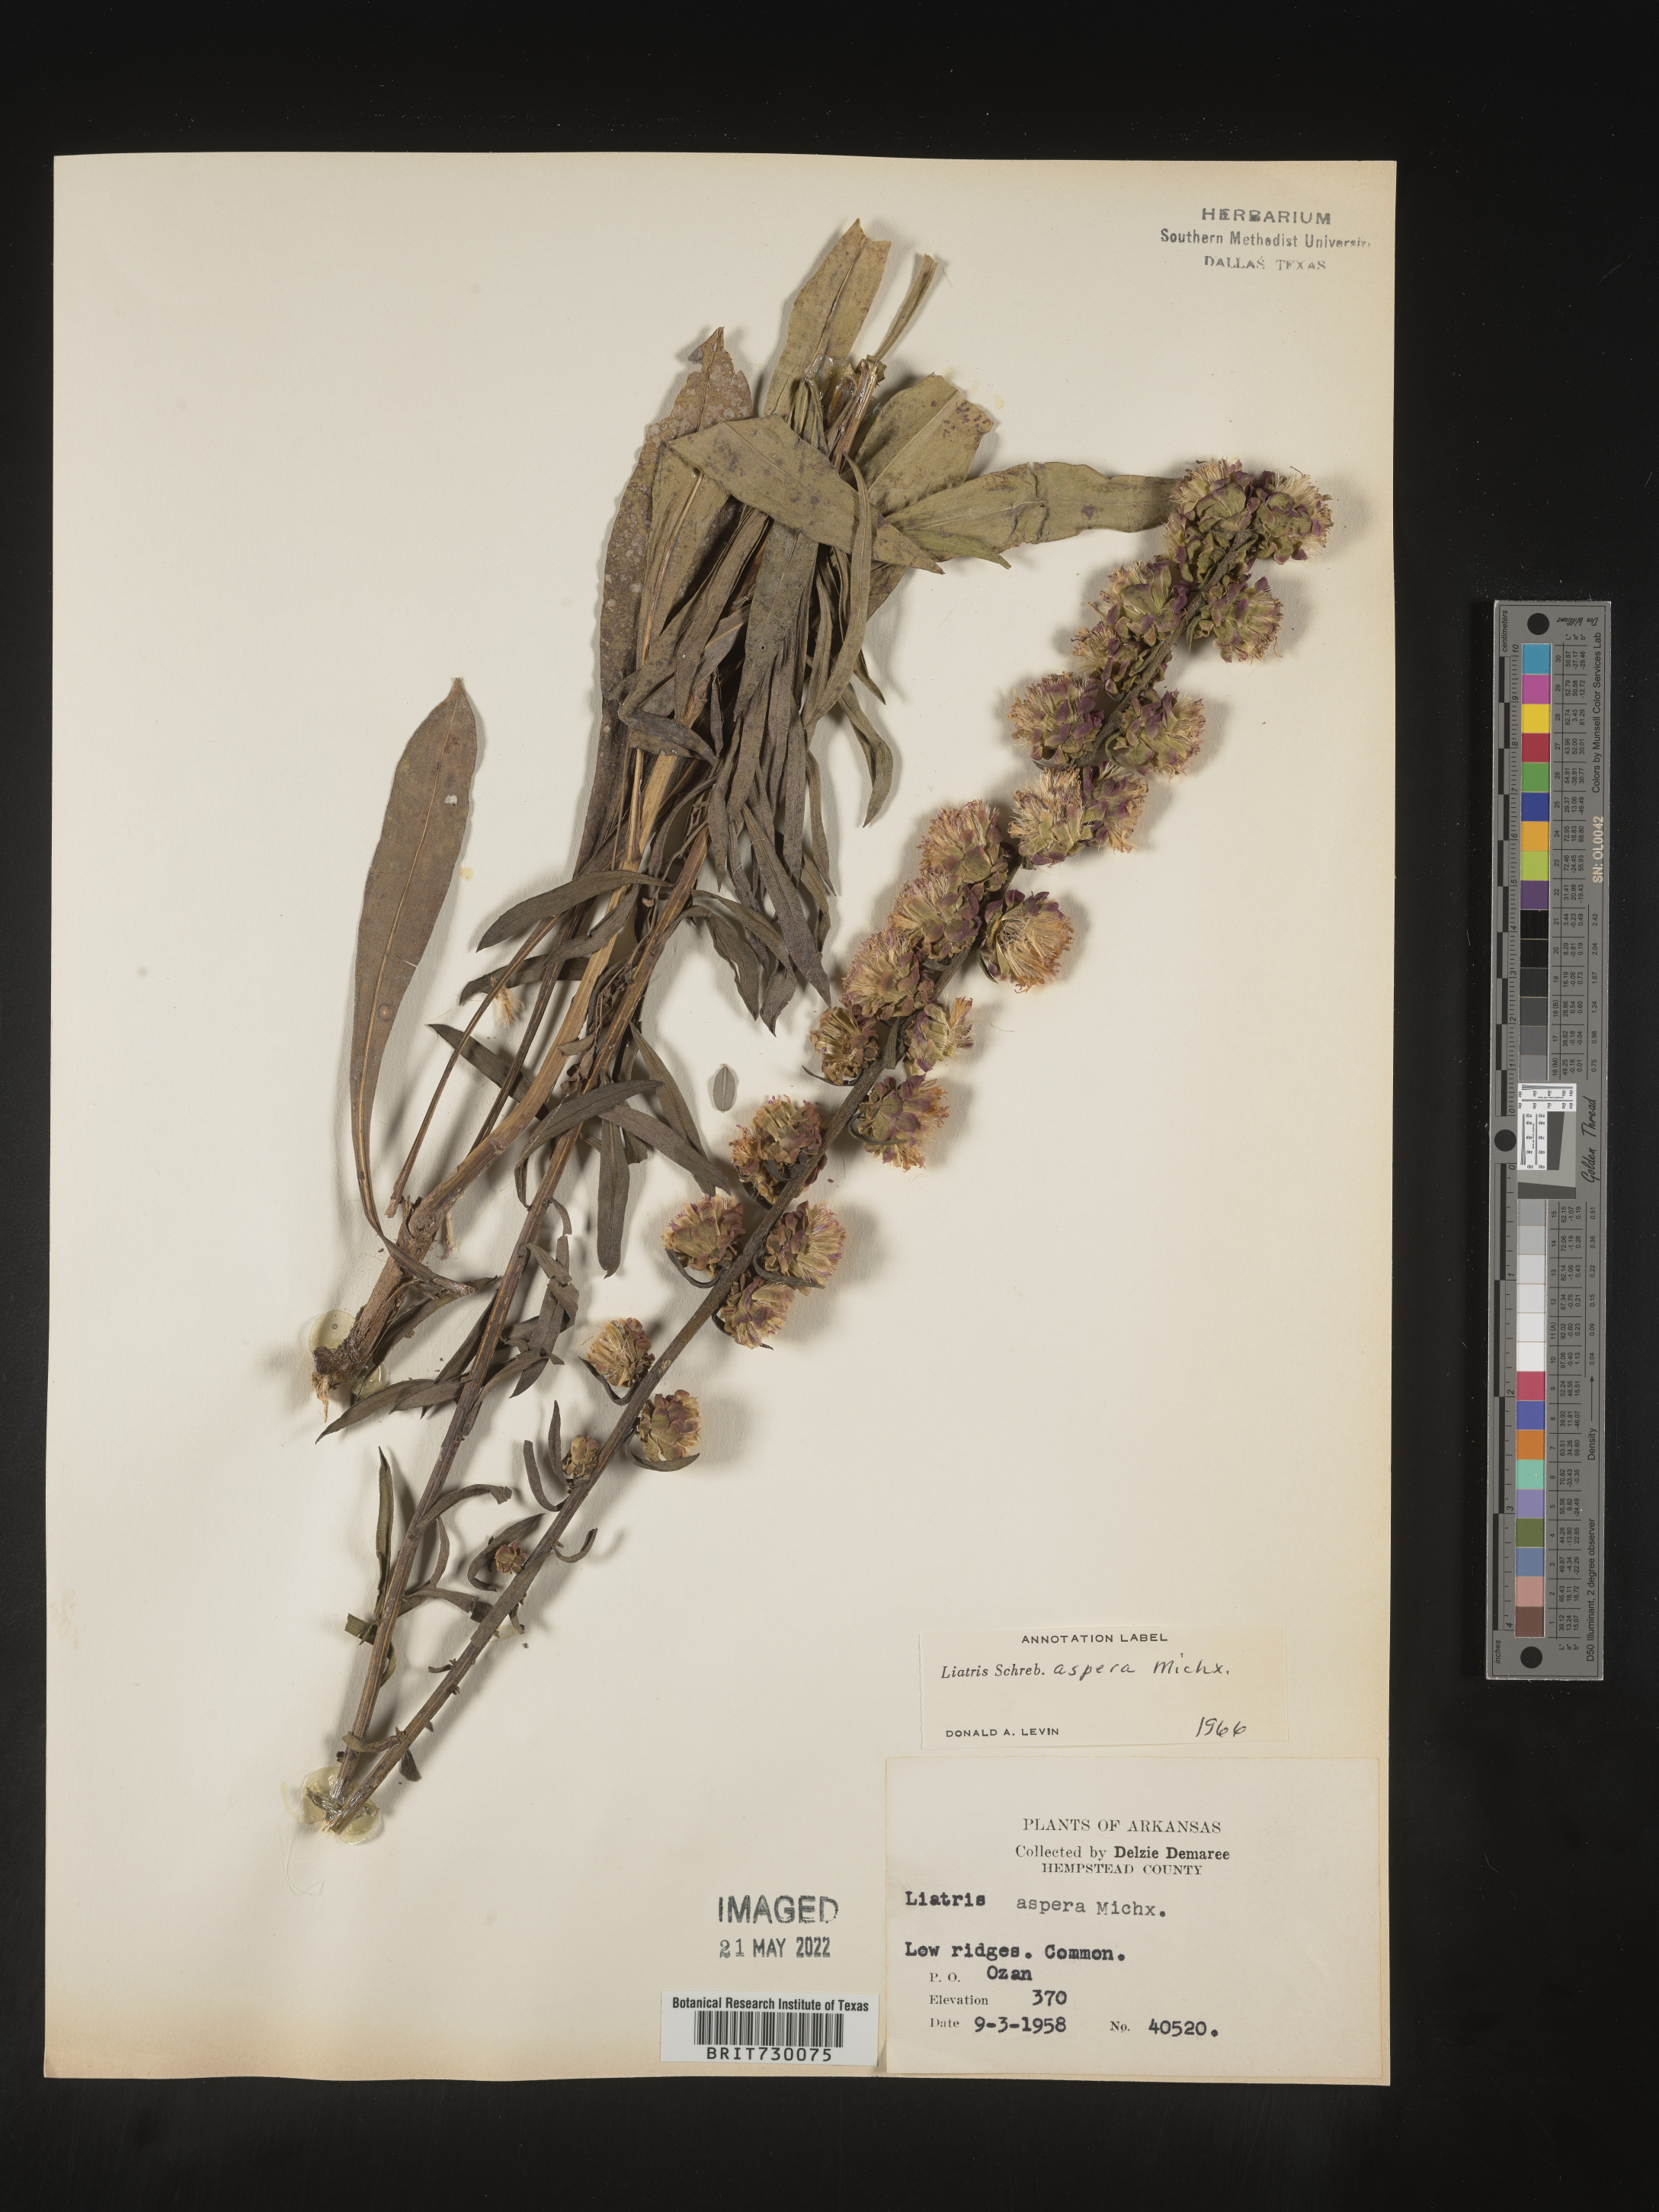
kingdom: Plantae
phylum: Tracheophyta
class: Magnoliopsida
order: Asterales
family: Asteraceae
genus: Liatris
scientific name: Liatris aspera
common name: Lacerate blazing-star
